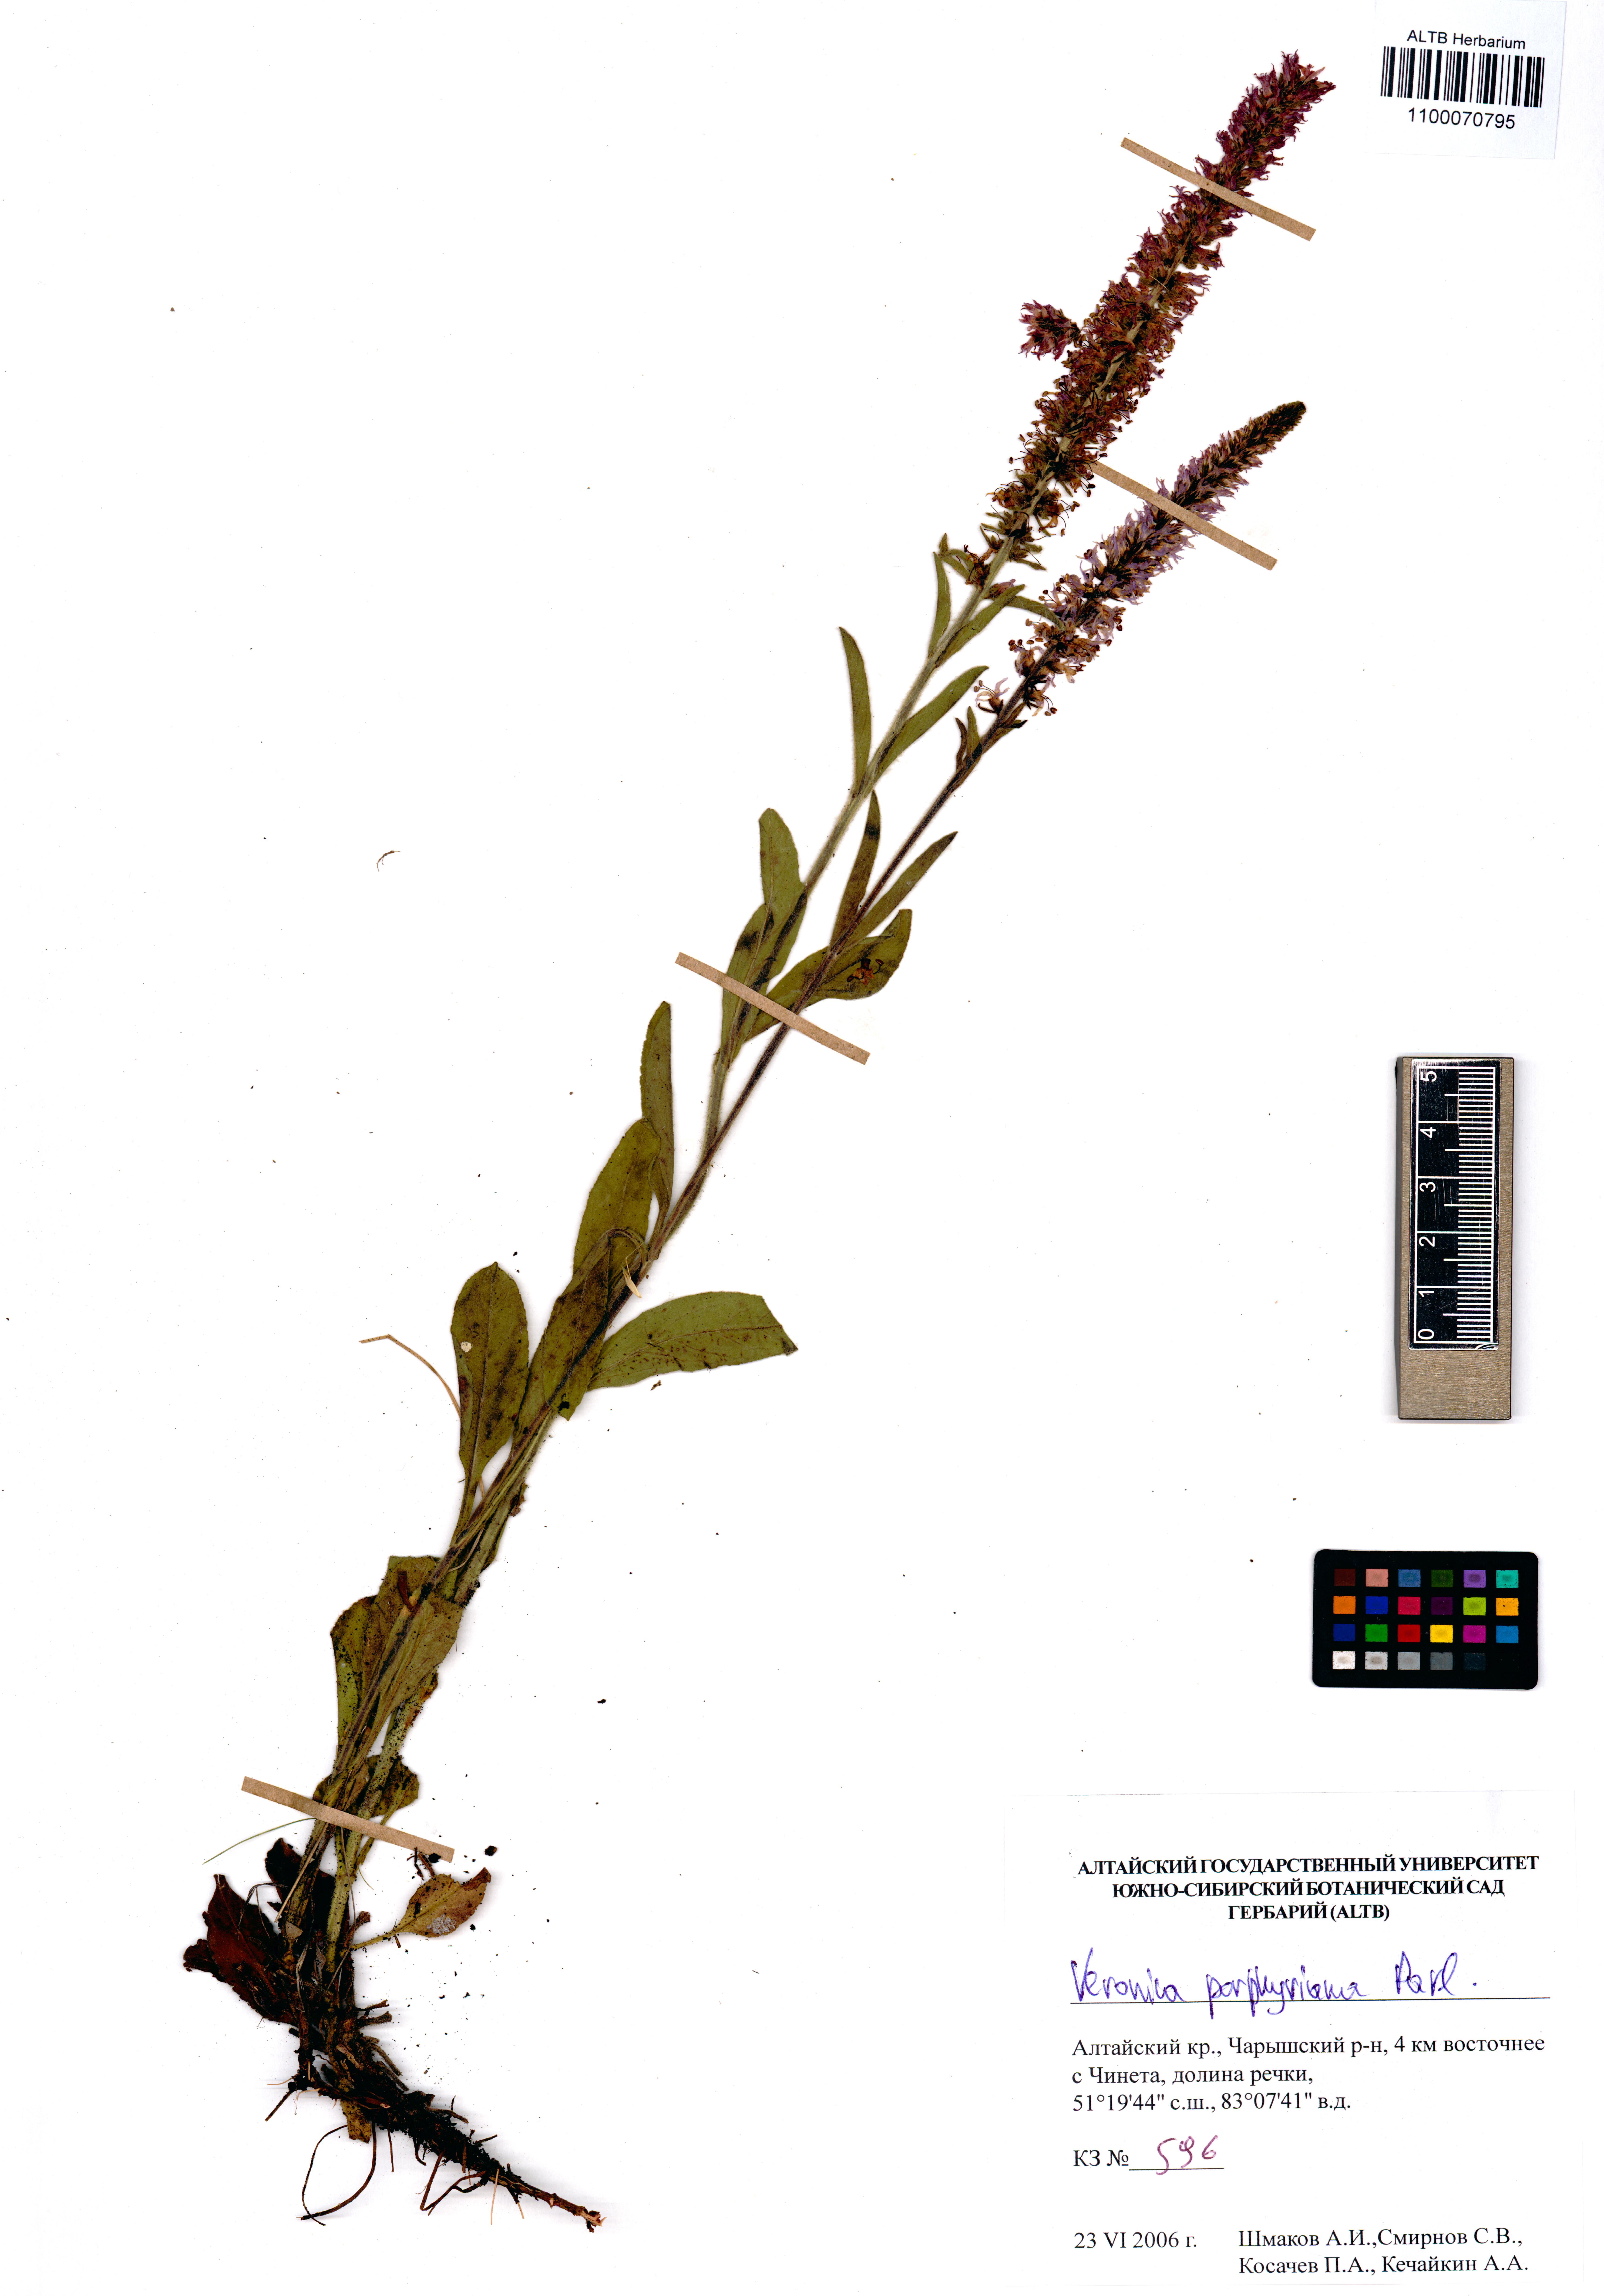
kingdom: Plantae
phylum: Tracheophyta
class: Magnoliopsida
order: Lamiales
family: Plantaginaceae
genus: Veronica
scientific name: Veronica porphyriana
